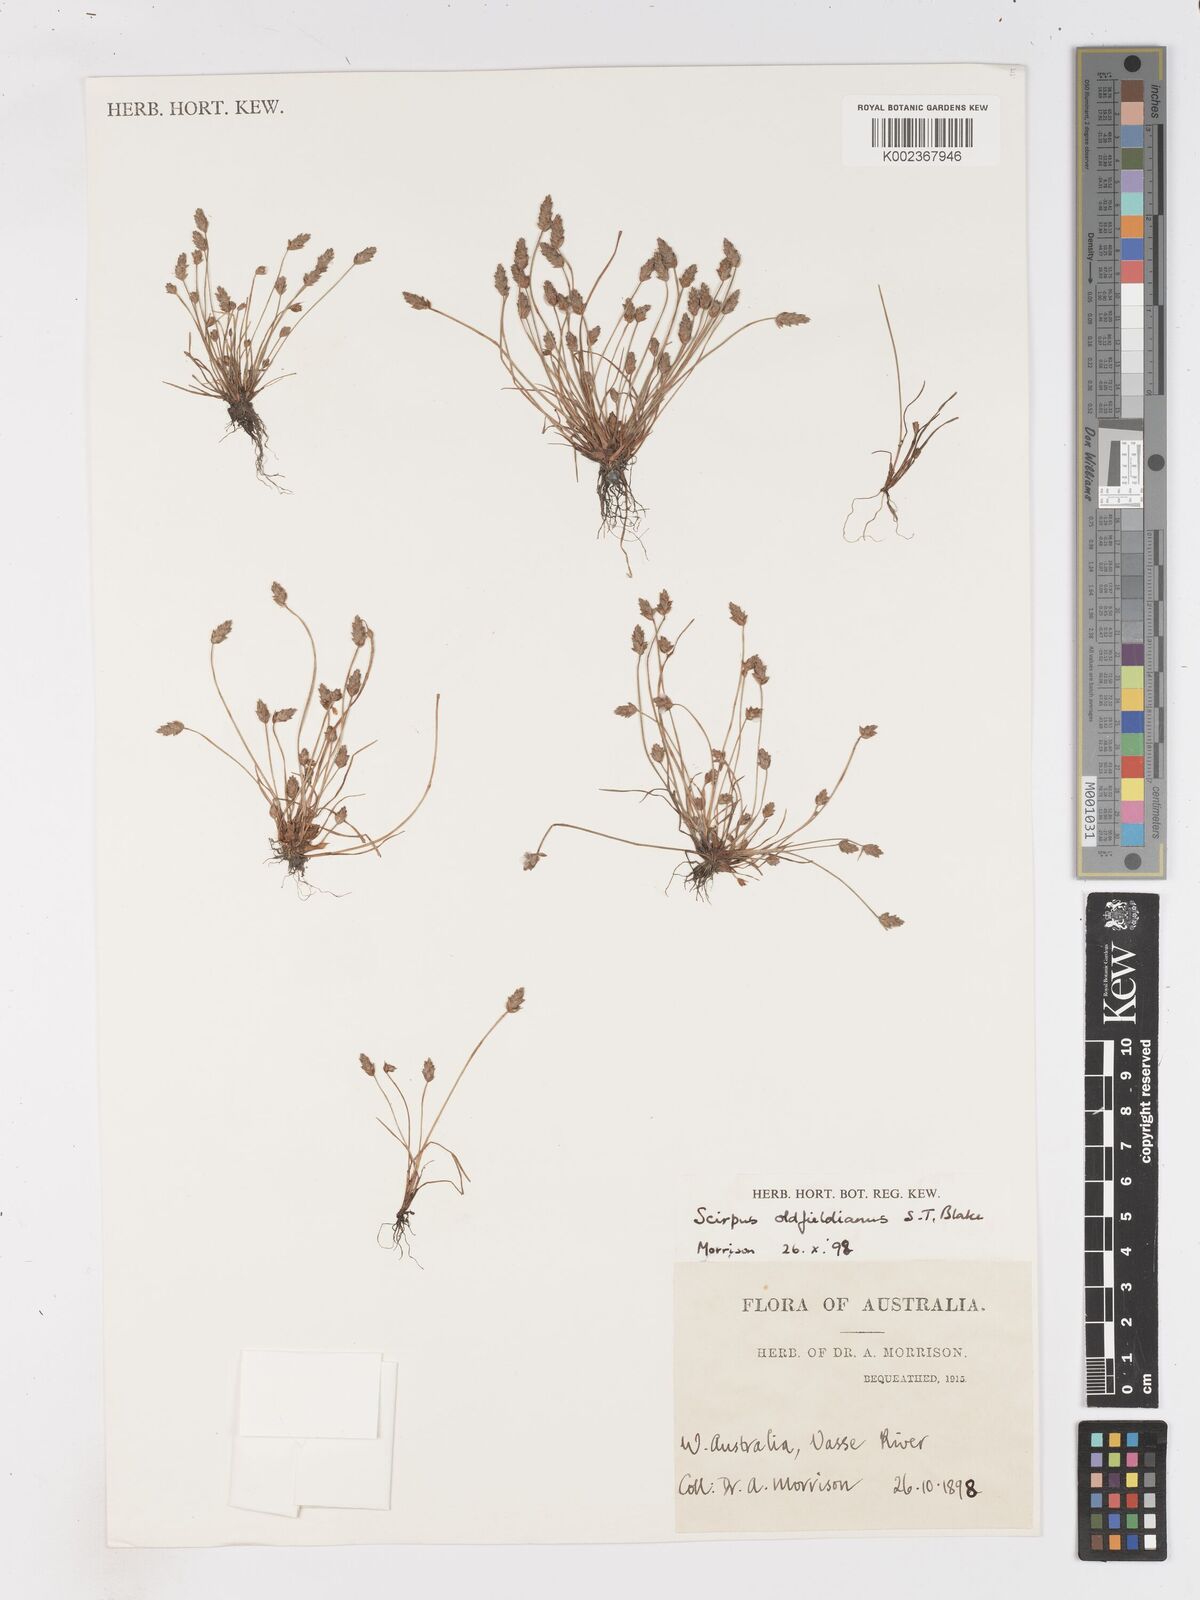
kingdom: Plantae
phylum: Tracheophyta
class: Liliopsida
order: Poales
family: Cyperaceae
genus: Isolepis
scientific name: Isolepis oldfieldiana
